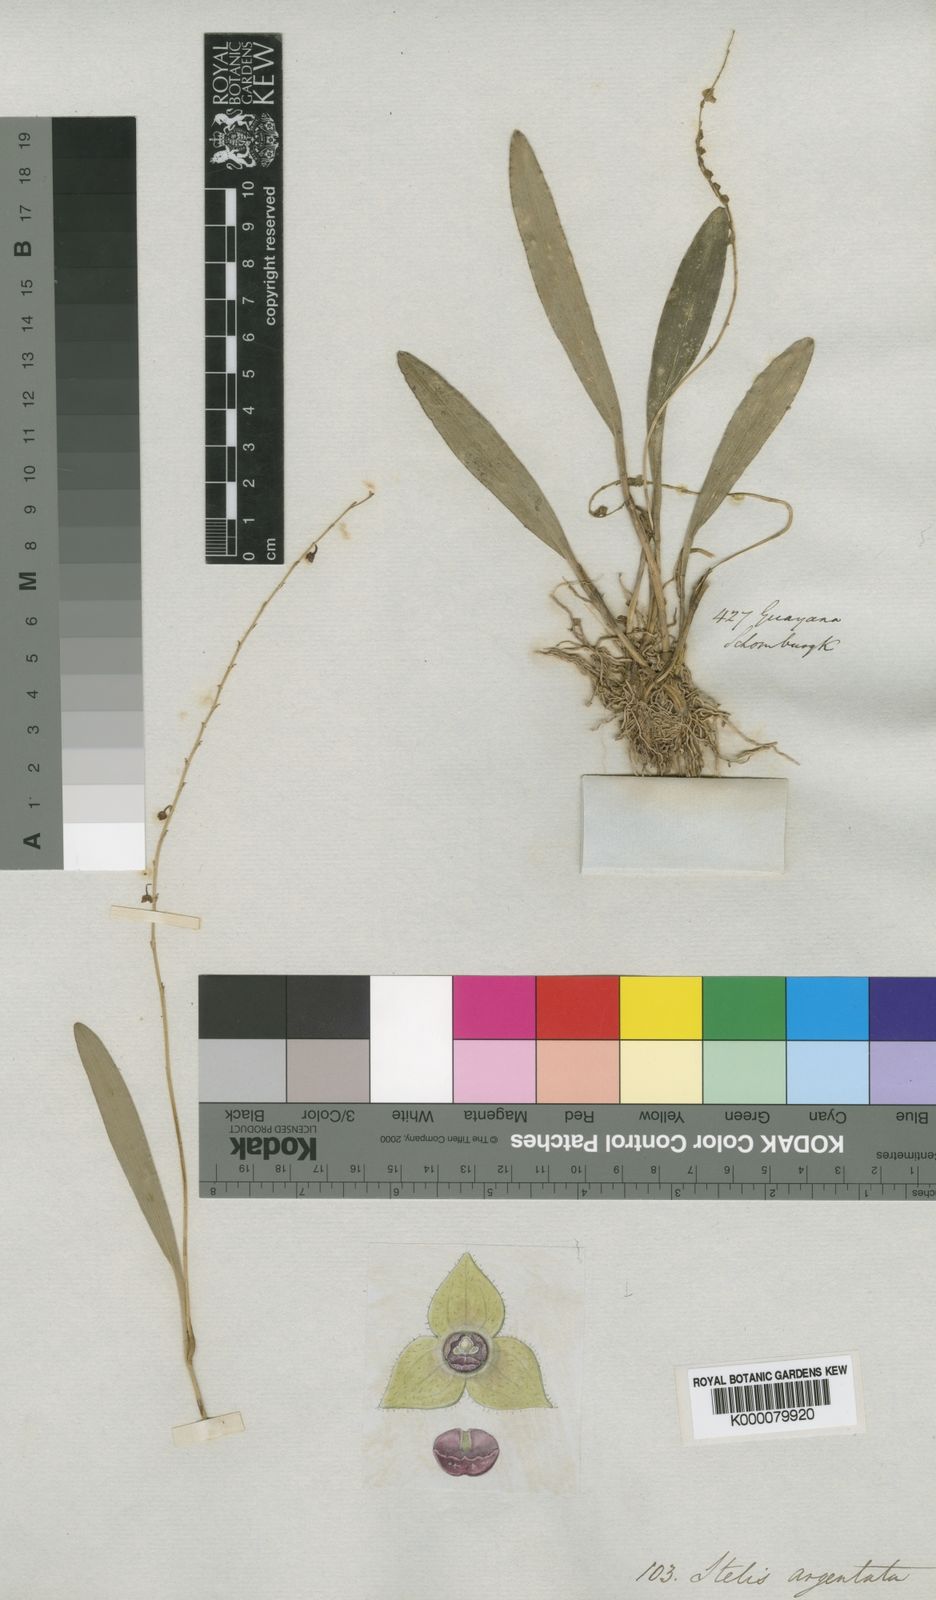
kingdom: Plantae
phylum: Tracheophyta
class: Liliopsida
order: Asparagales
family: Orchidaceae
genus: Stelis
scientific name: Stelis argentata
